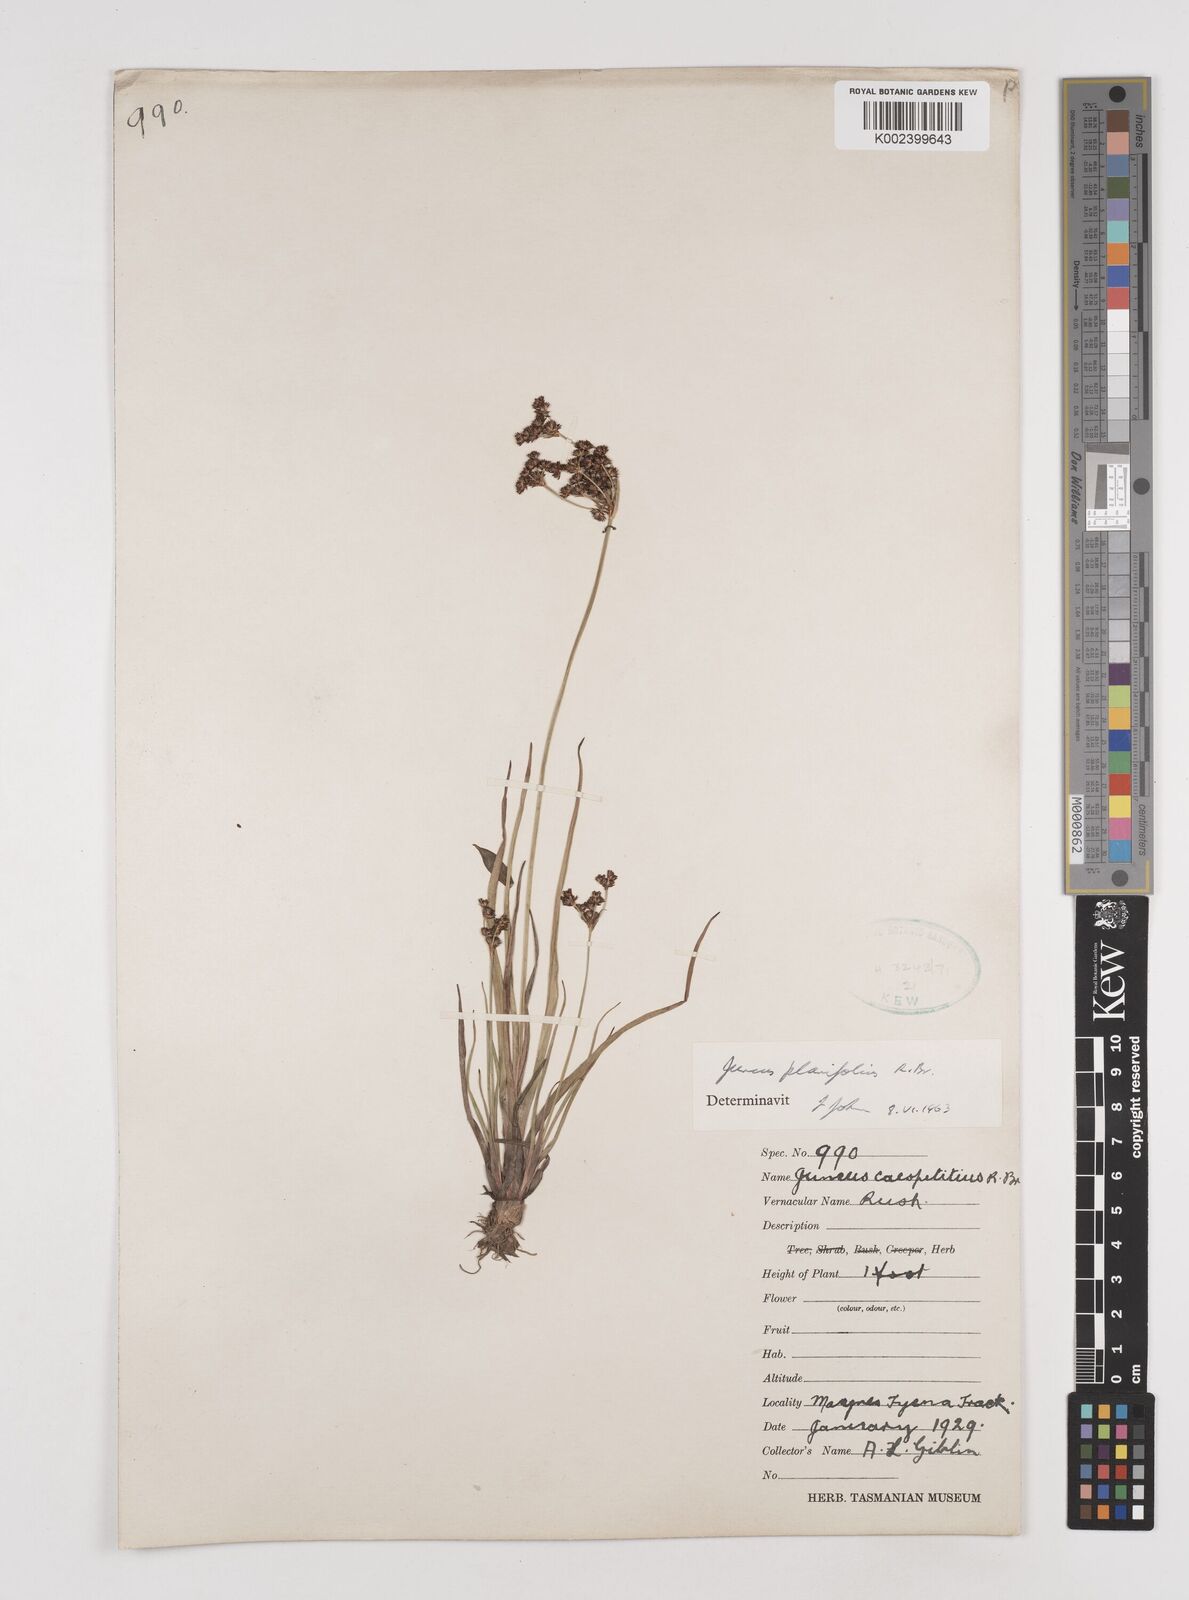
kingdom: Plantae
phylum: Tracheophyta
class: Liliopsida
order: Poales
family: Juncaceae
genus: Juncus
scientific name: Juncus planifolius
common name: Broadleaf rush
